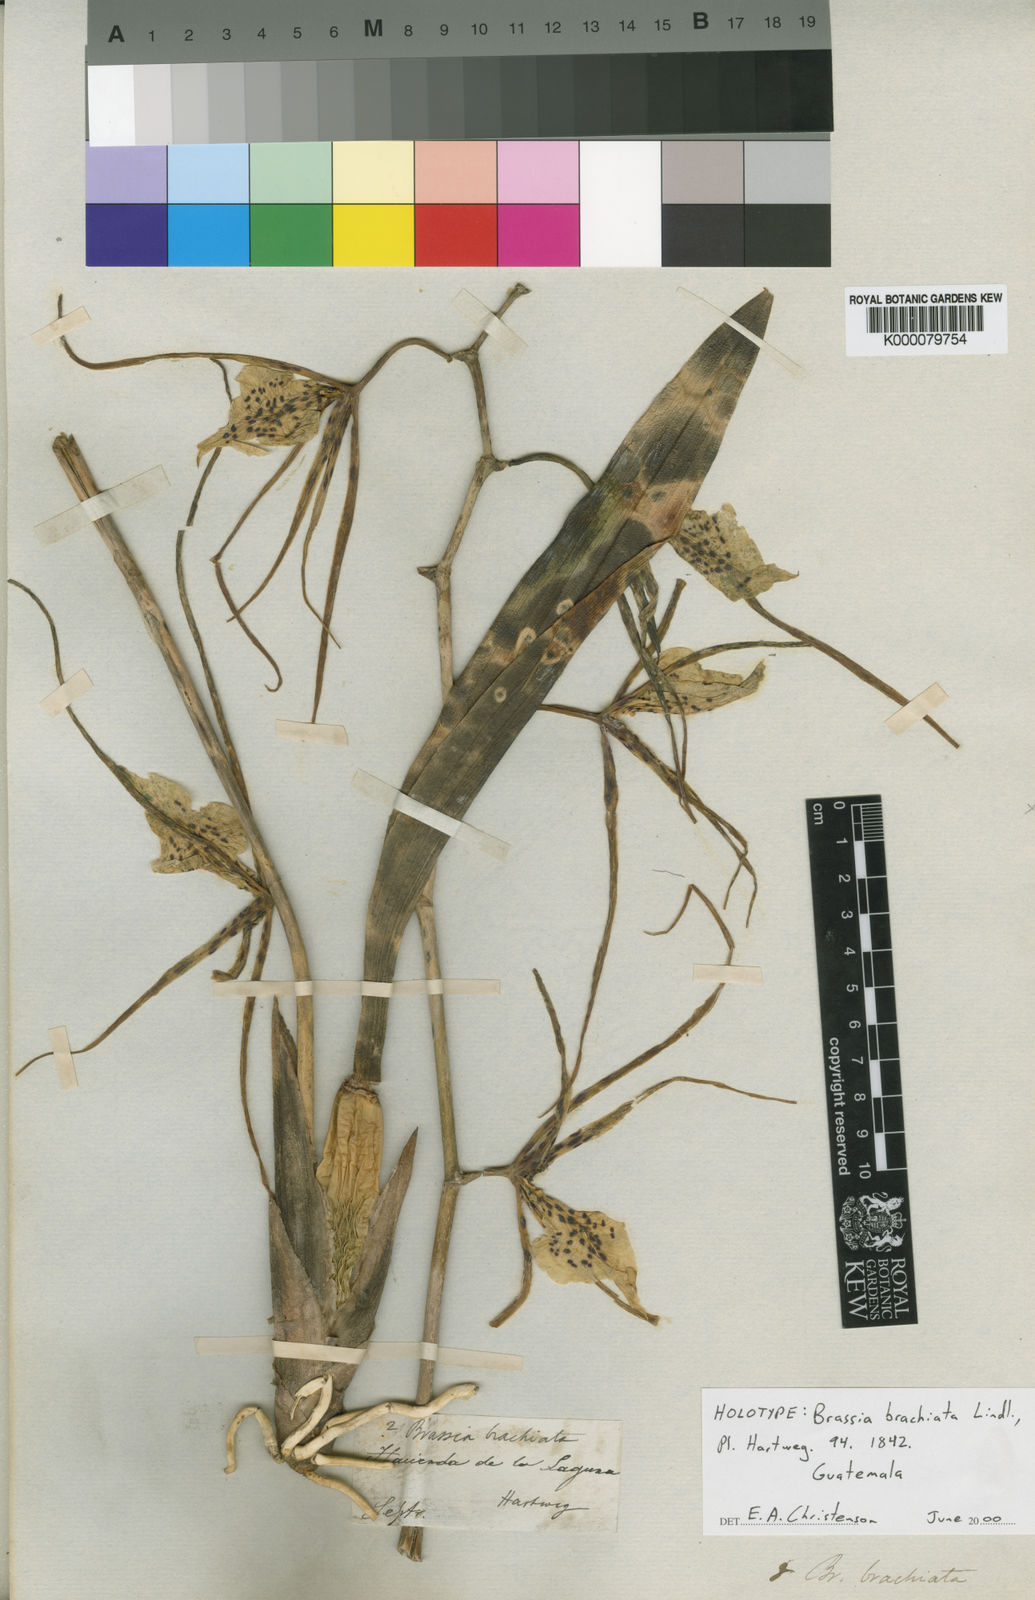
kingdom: Plantae
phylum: Tracheophyta
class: Liliopsida
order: Asparagales
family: Orchidaceae
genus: Brassia
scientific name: Brassia verrucosa
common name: Warty brassia
